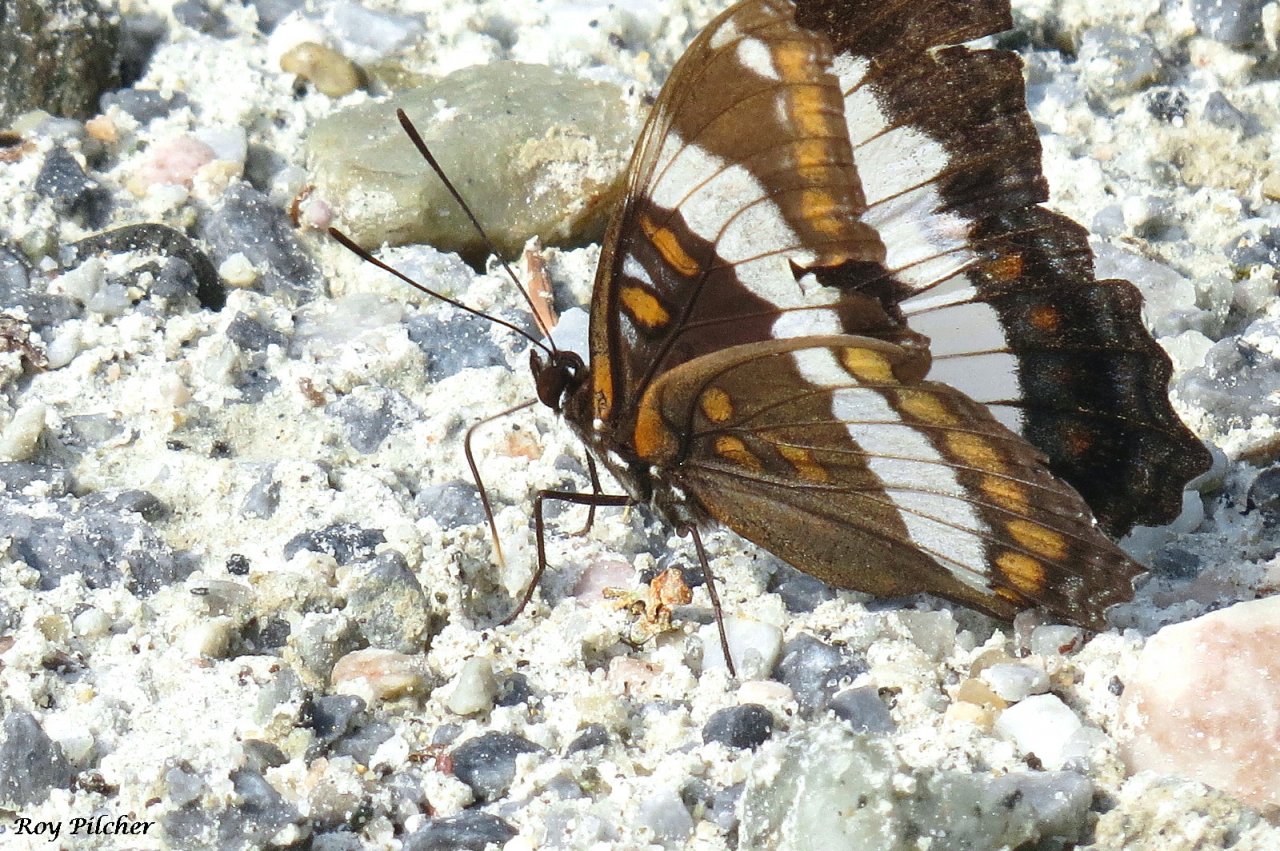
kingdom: Animalia
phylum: Arthropoda
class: Insecta
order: Lepidoptera
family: Nymphalidae
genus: Limenitis
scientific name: Limenitis arthemis
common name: Red-spotted Admiral
